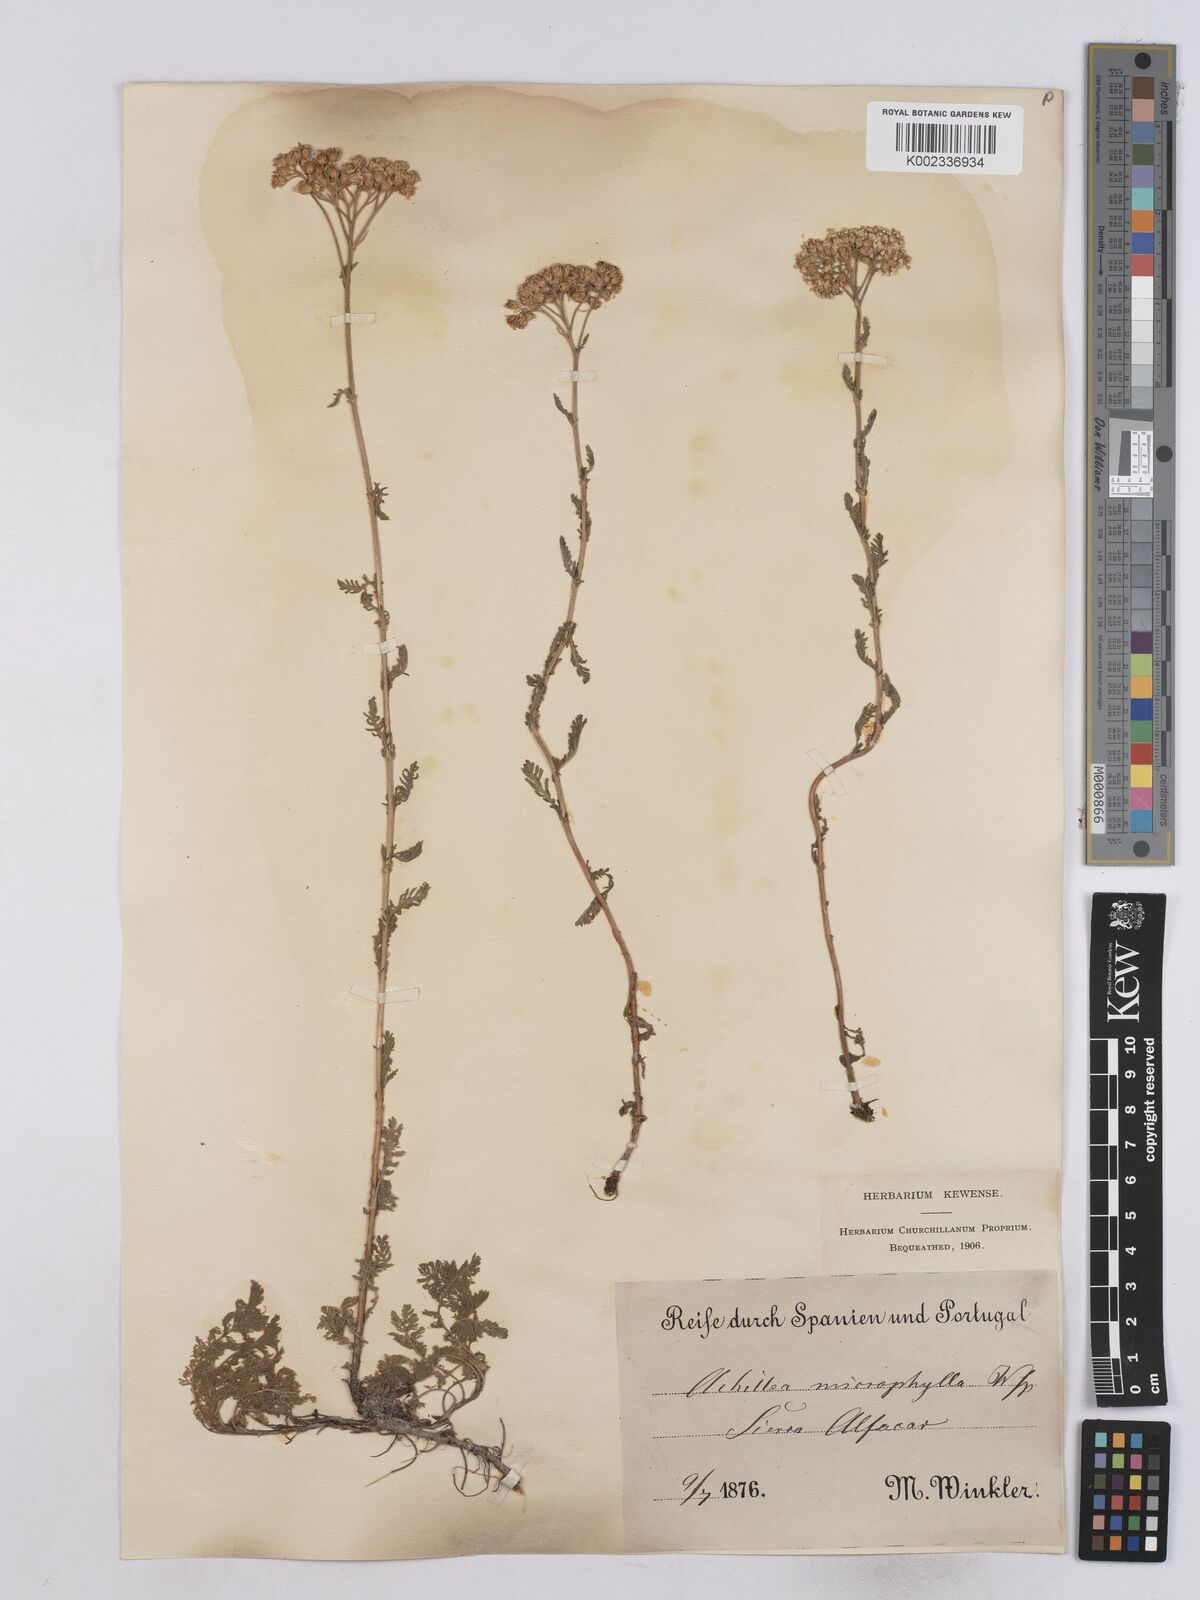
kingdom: Plantae
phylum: Tracheophyta
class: Magnoliopsida
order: Asterales
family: Asteraceae
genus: Achillea
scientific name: Achillea odorata
